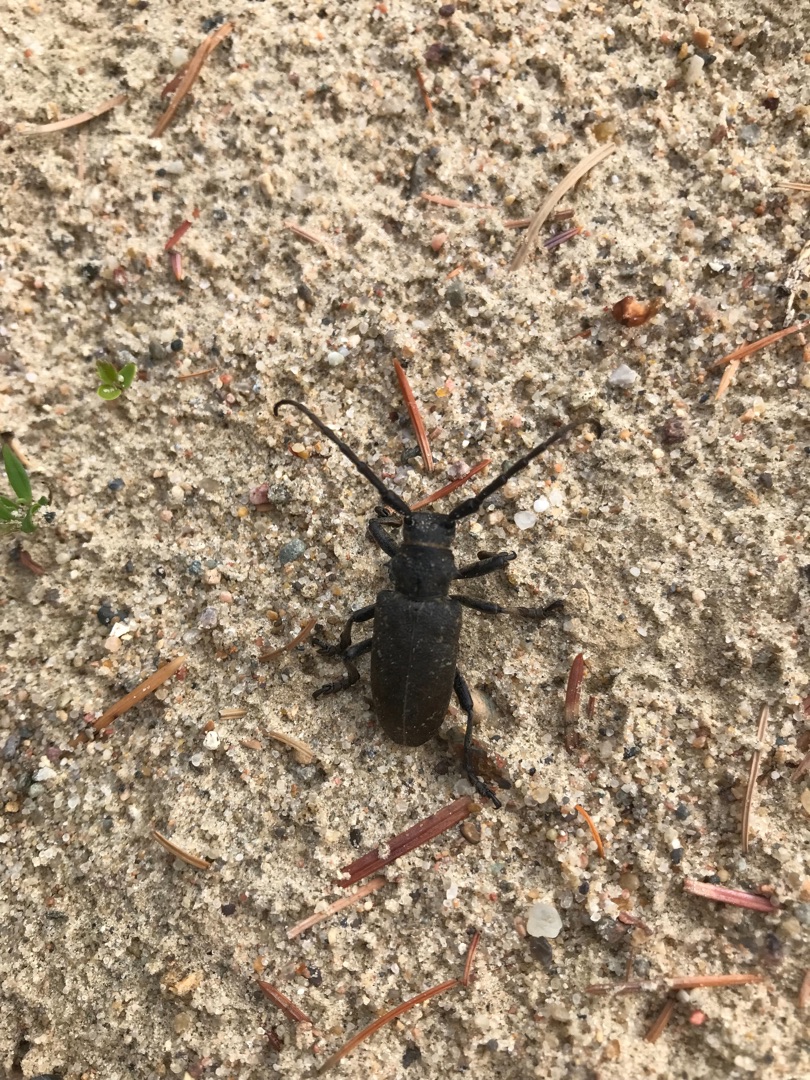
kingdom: Animalia
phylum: Arthropoda
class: Insecta
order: Coleoptera
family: Cerambycidae
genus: Lamia
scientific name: Lamia textor
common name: Væver
